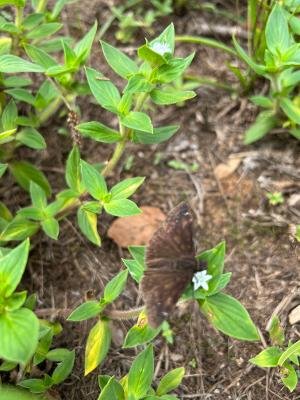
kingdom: Animalia
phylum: Arthropoda
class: Insecta
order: Lepidoptera
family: Hesperiidae
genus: Erynnis
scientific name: Erynnis zarucco
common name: Zarucco Duskywing
